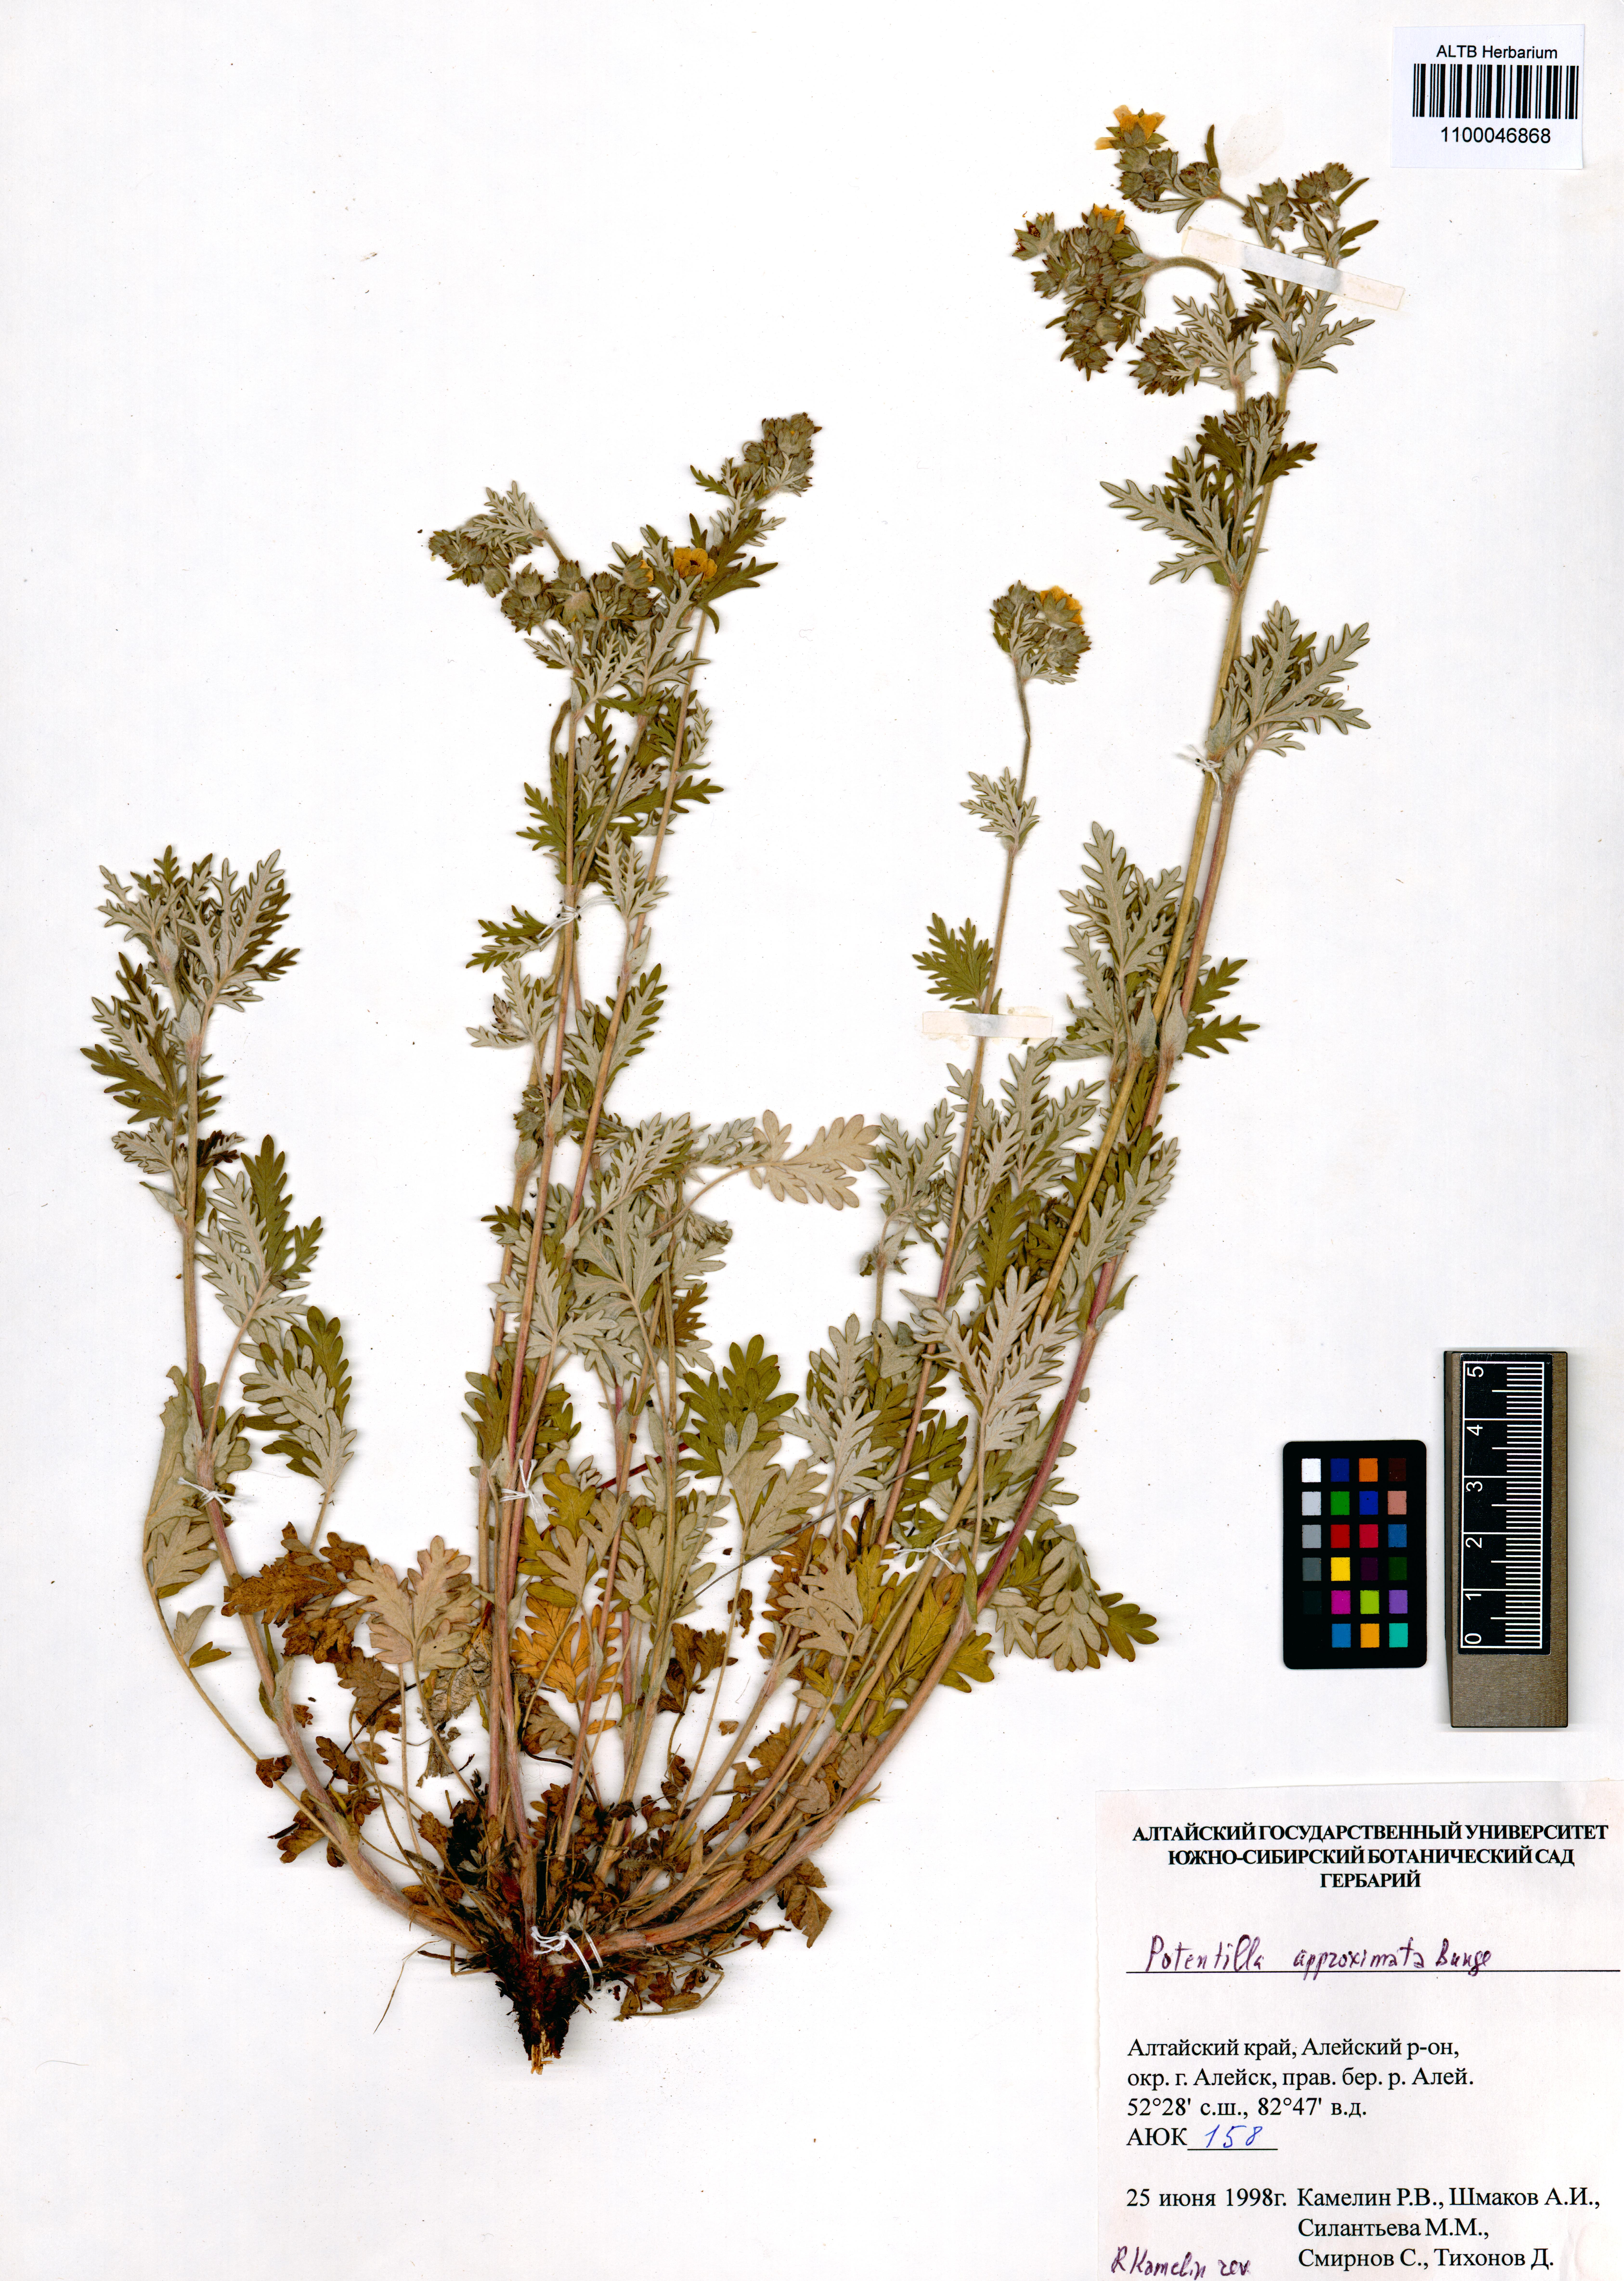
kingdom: Plantae
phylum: Tracheophyta
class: Magnoliopsida
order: Rosales
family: Rosaceae
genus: Potentilla
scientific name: Potentilla conferta
